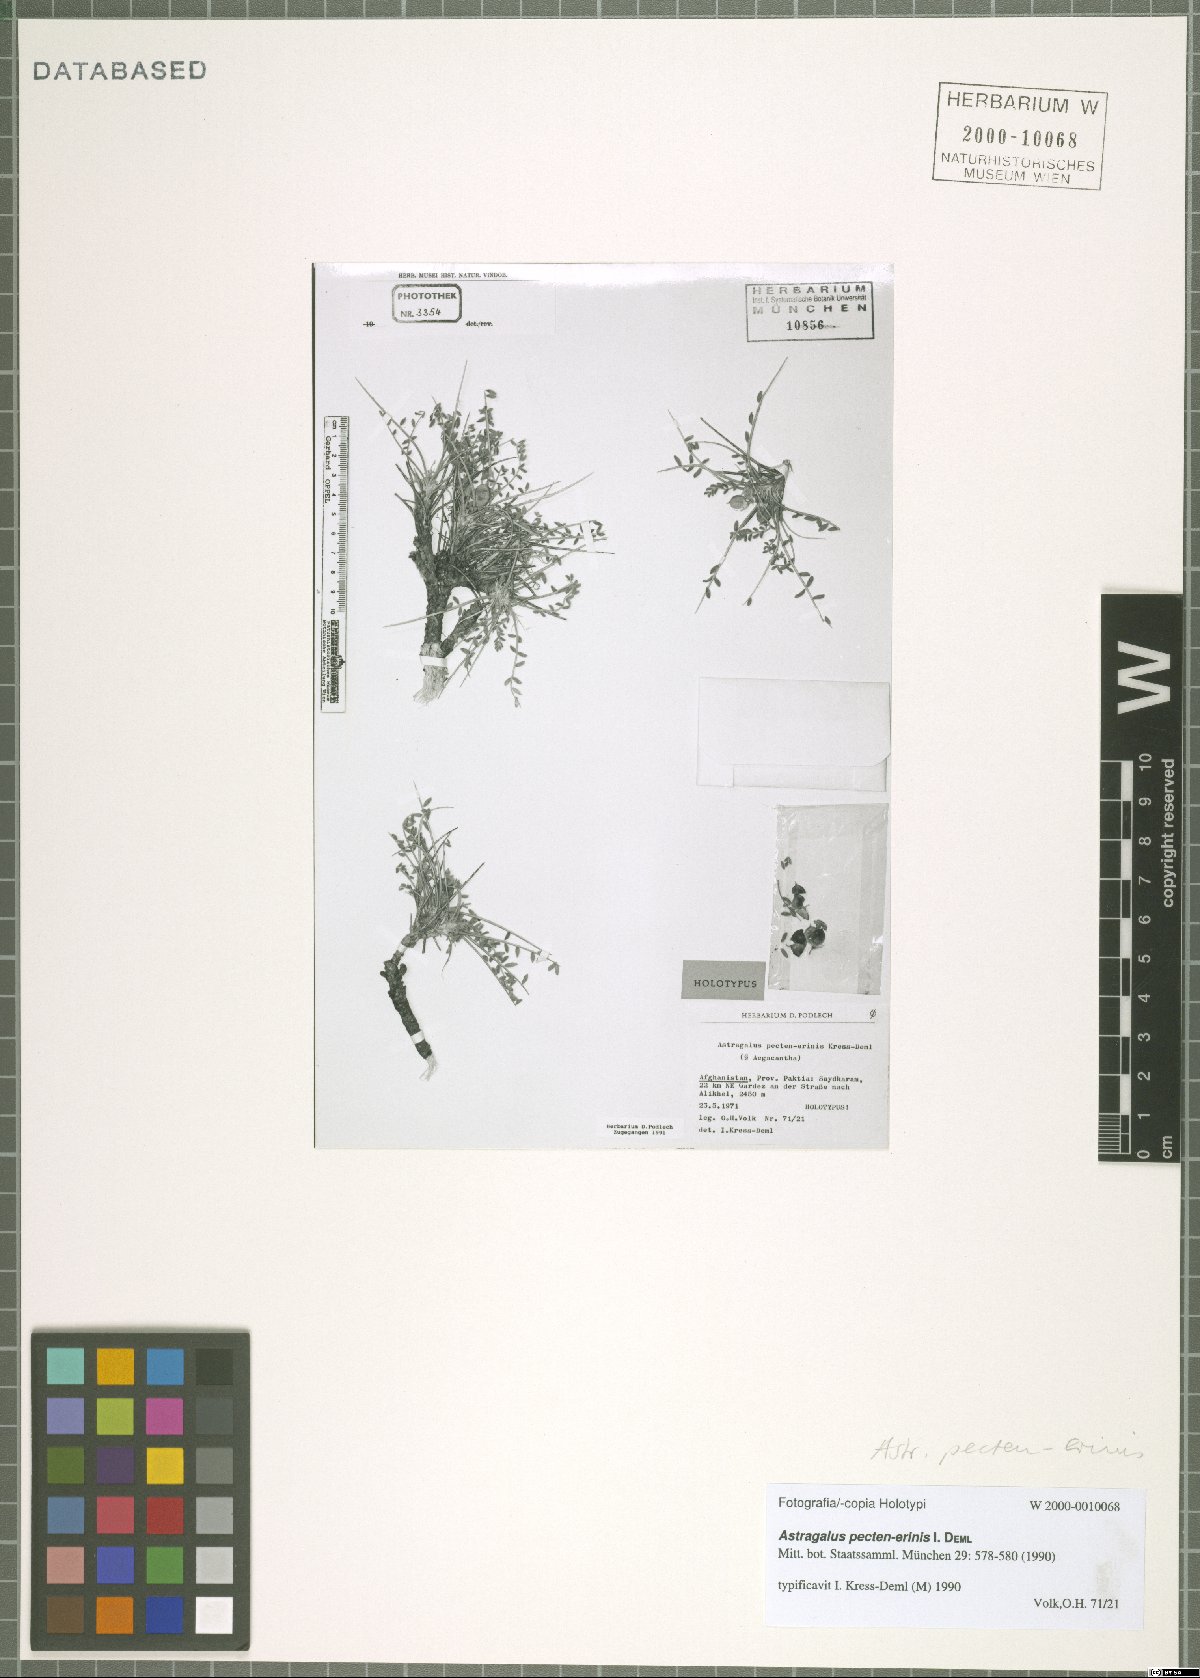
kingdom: Plantae
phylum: Tracheophyta
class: Magnoliopsida
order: Fabales
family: Fabaceae
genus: Astragalus
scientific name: Astragalus pecten-erinis
